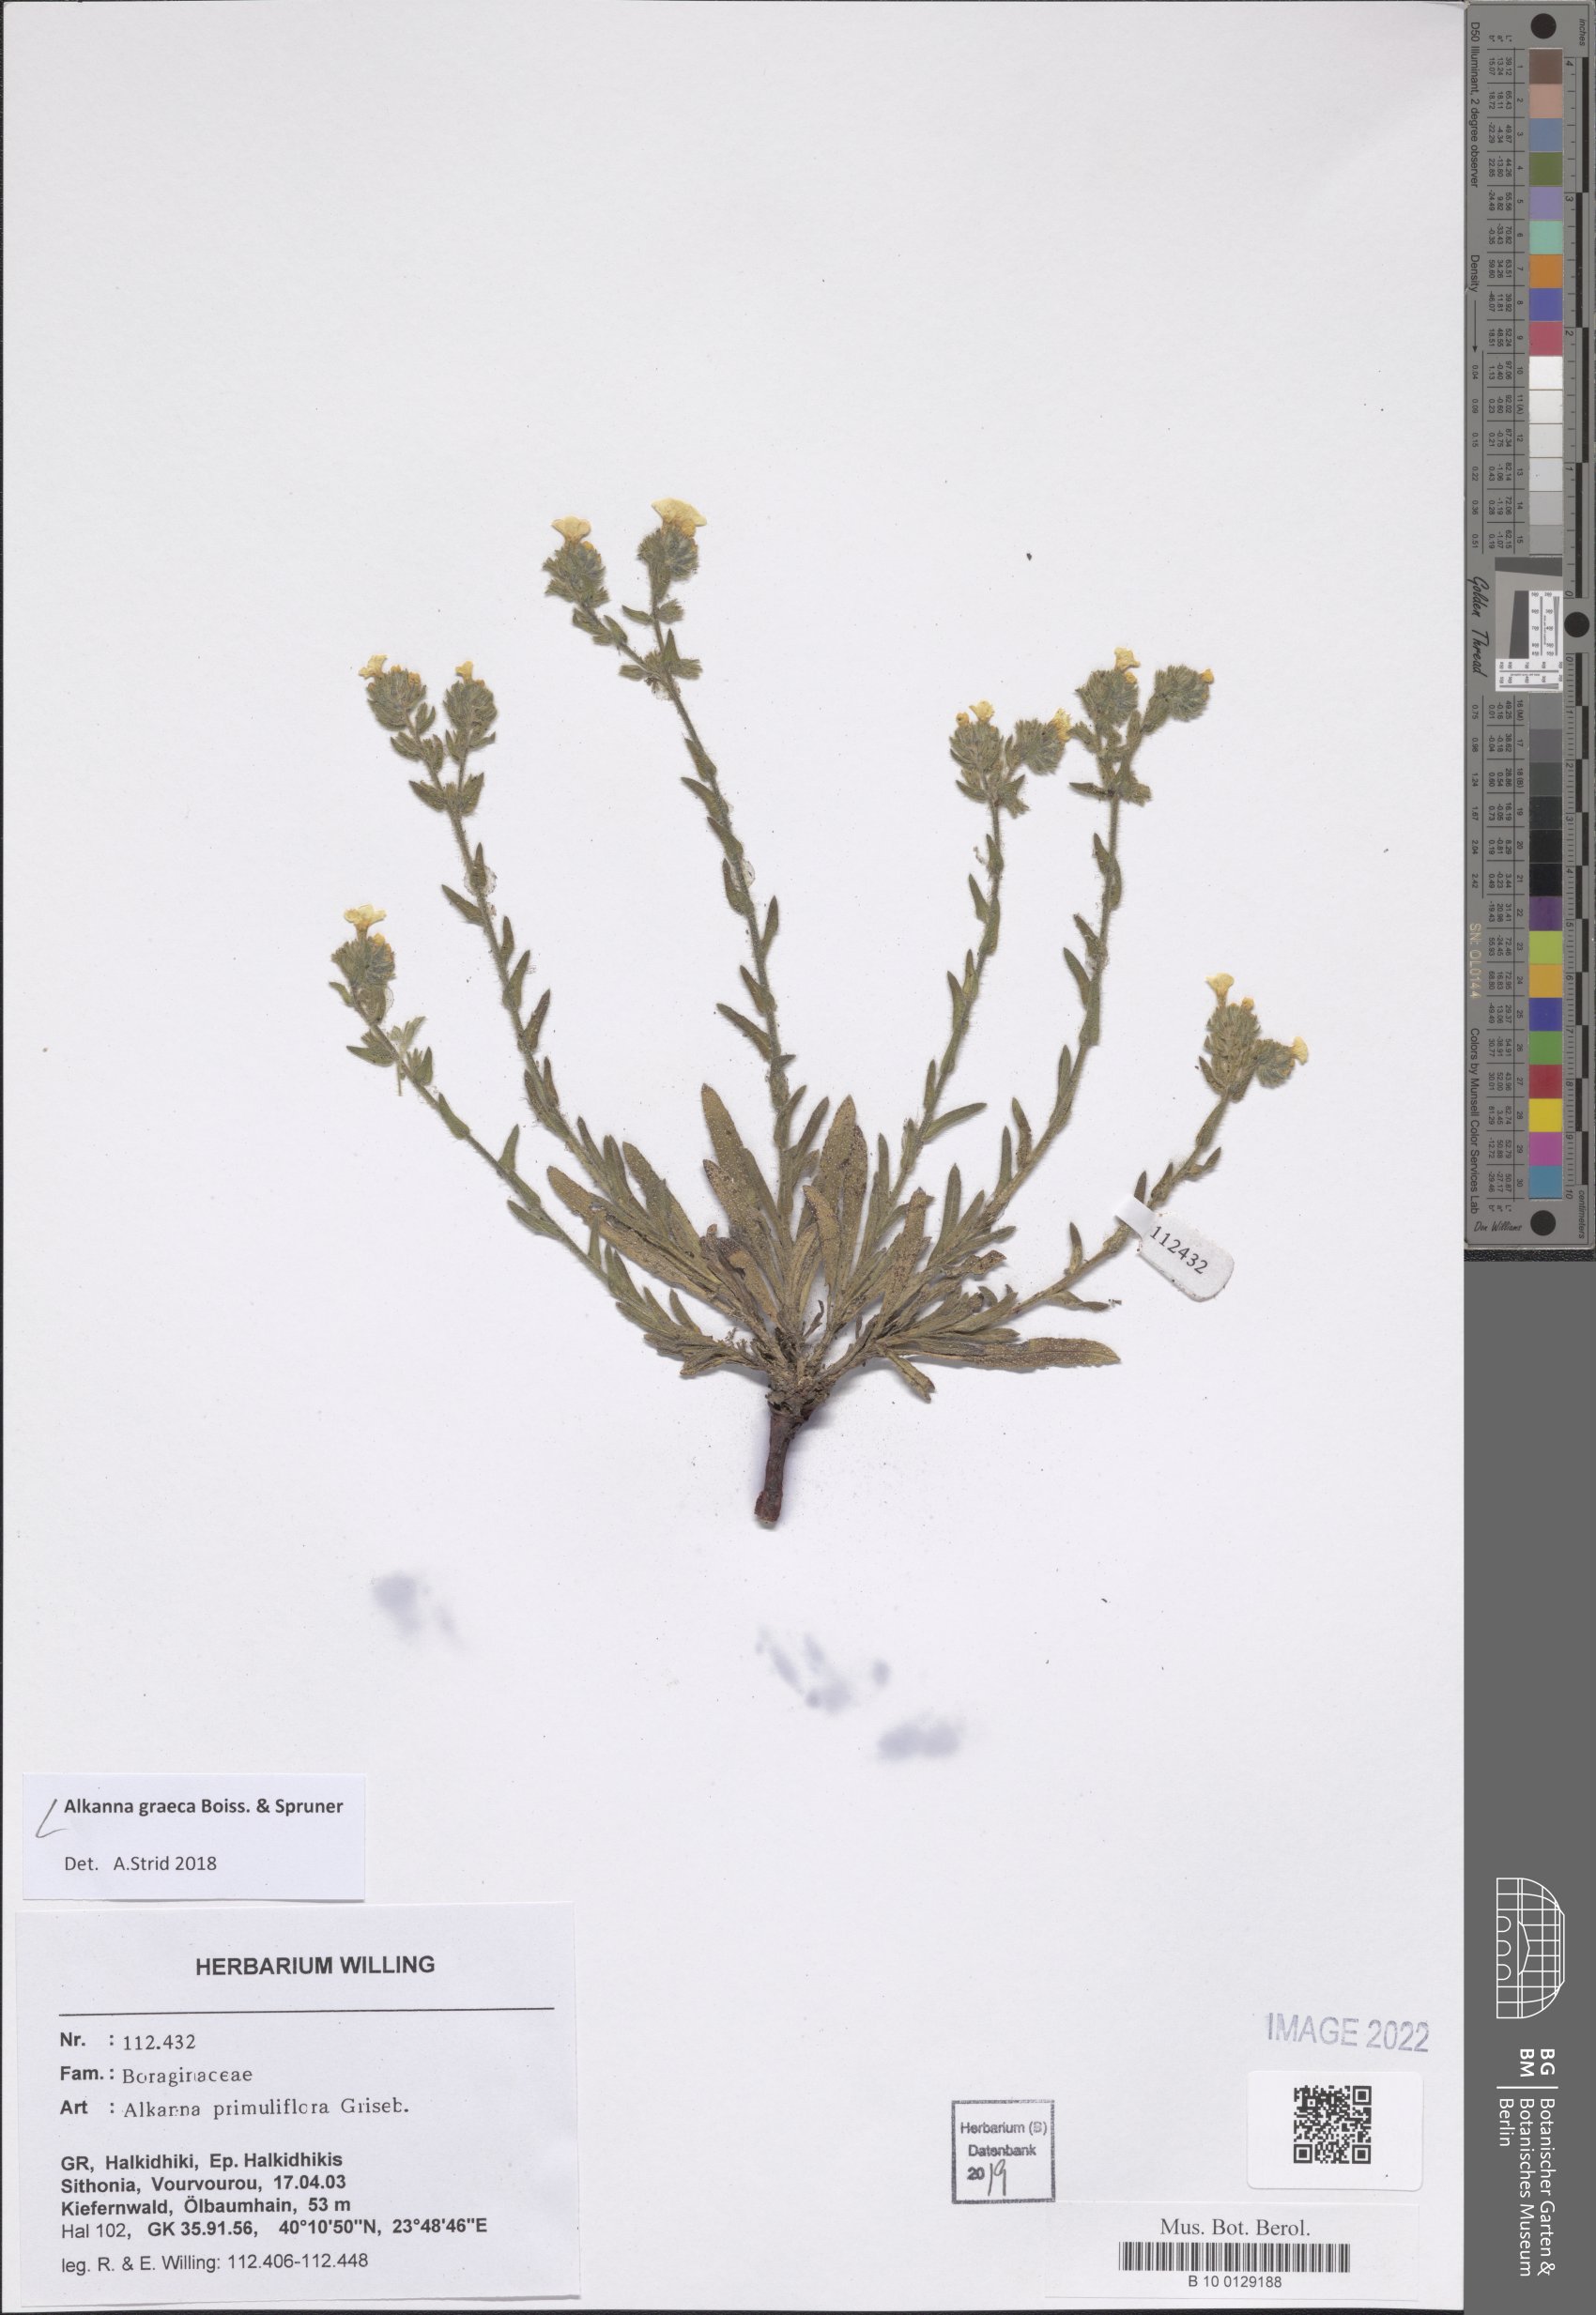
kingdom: Plantae
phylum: Tracheophyta
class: Magnoliopsida
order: Boraginales
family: Boraginaceae
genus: Alkanna
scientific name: Alkanna graeca
